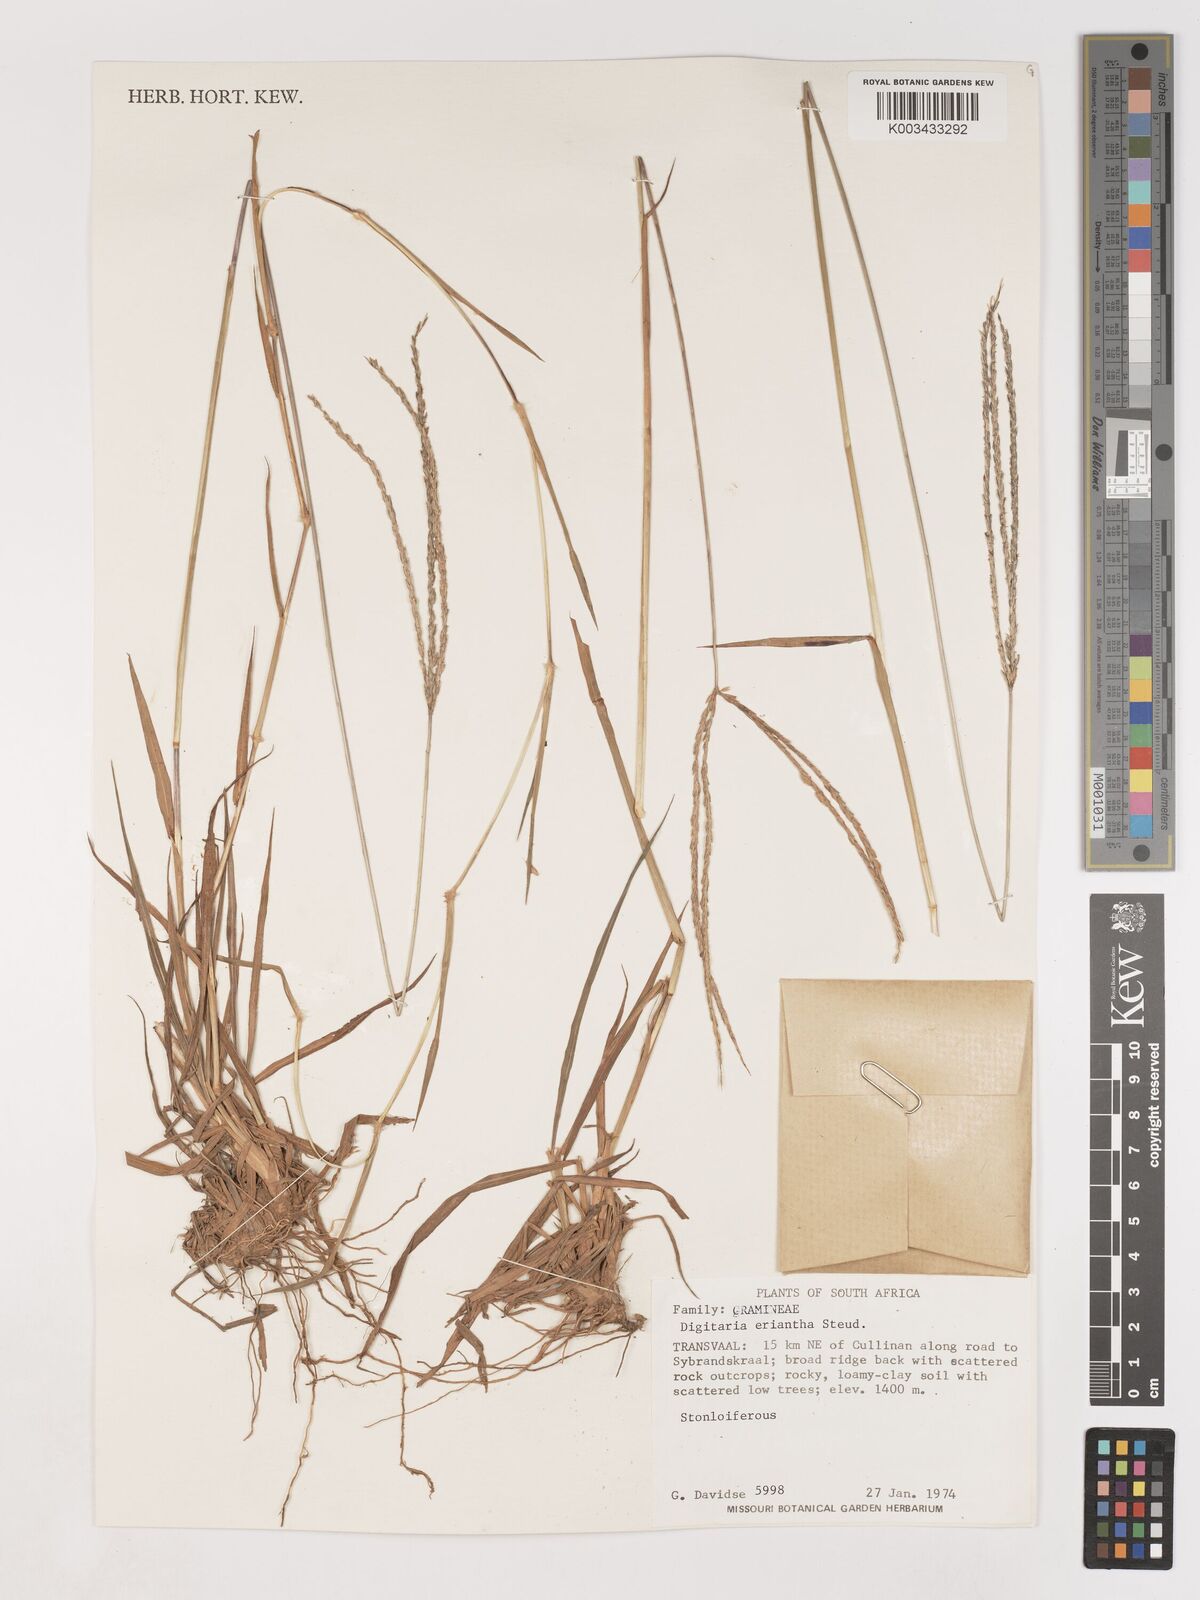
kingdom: Plantae
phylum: Tracheophyta
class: Liliopsida
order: Poales
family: Poaceae
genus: Digitaria
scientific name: Digitaria eriantha
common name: Digitgrass
